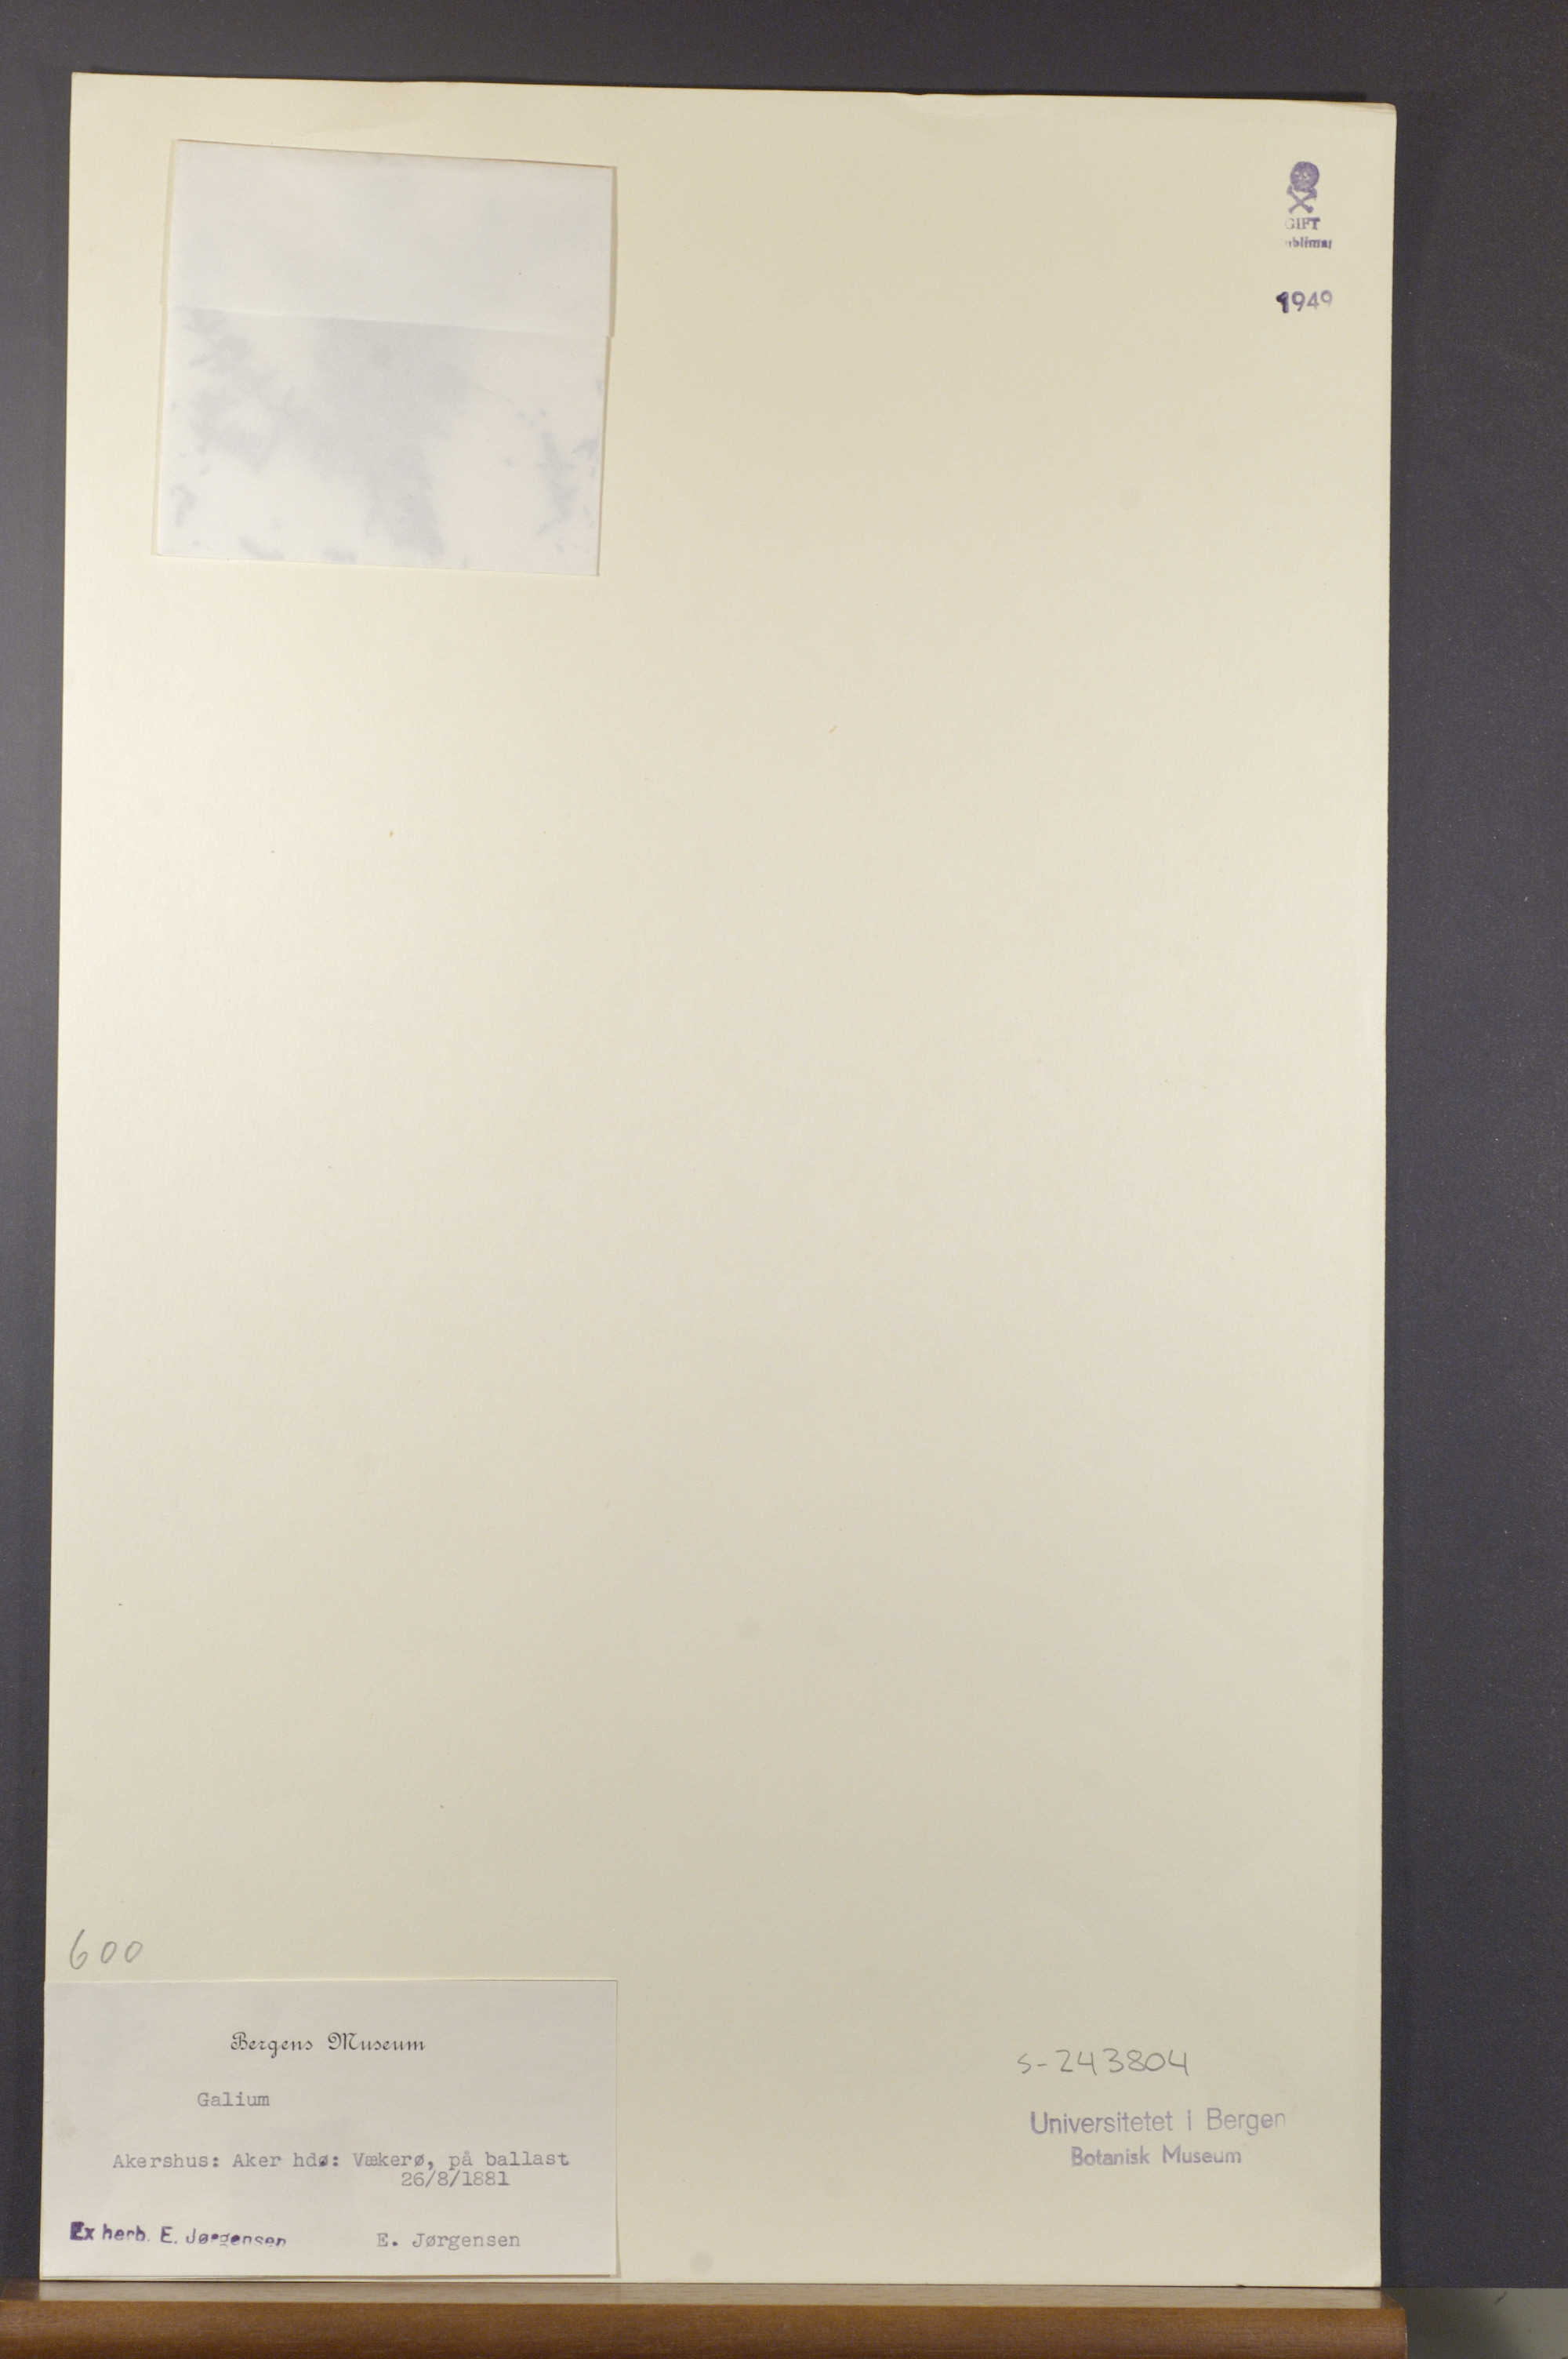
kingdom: Plantae
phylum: Tracheophyta
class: Magnoliopsida
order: Gentianales
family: Rubiaceae
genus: Galium
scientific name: Galium
